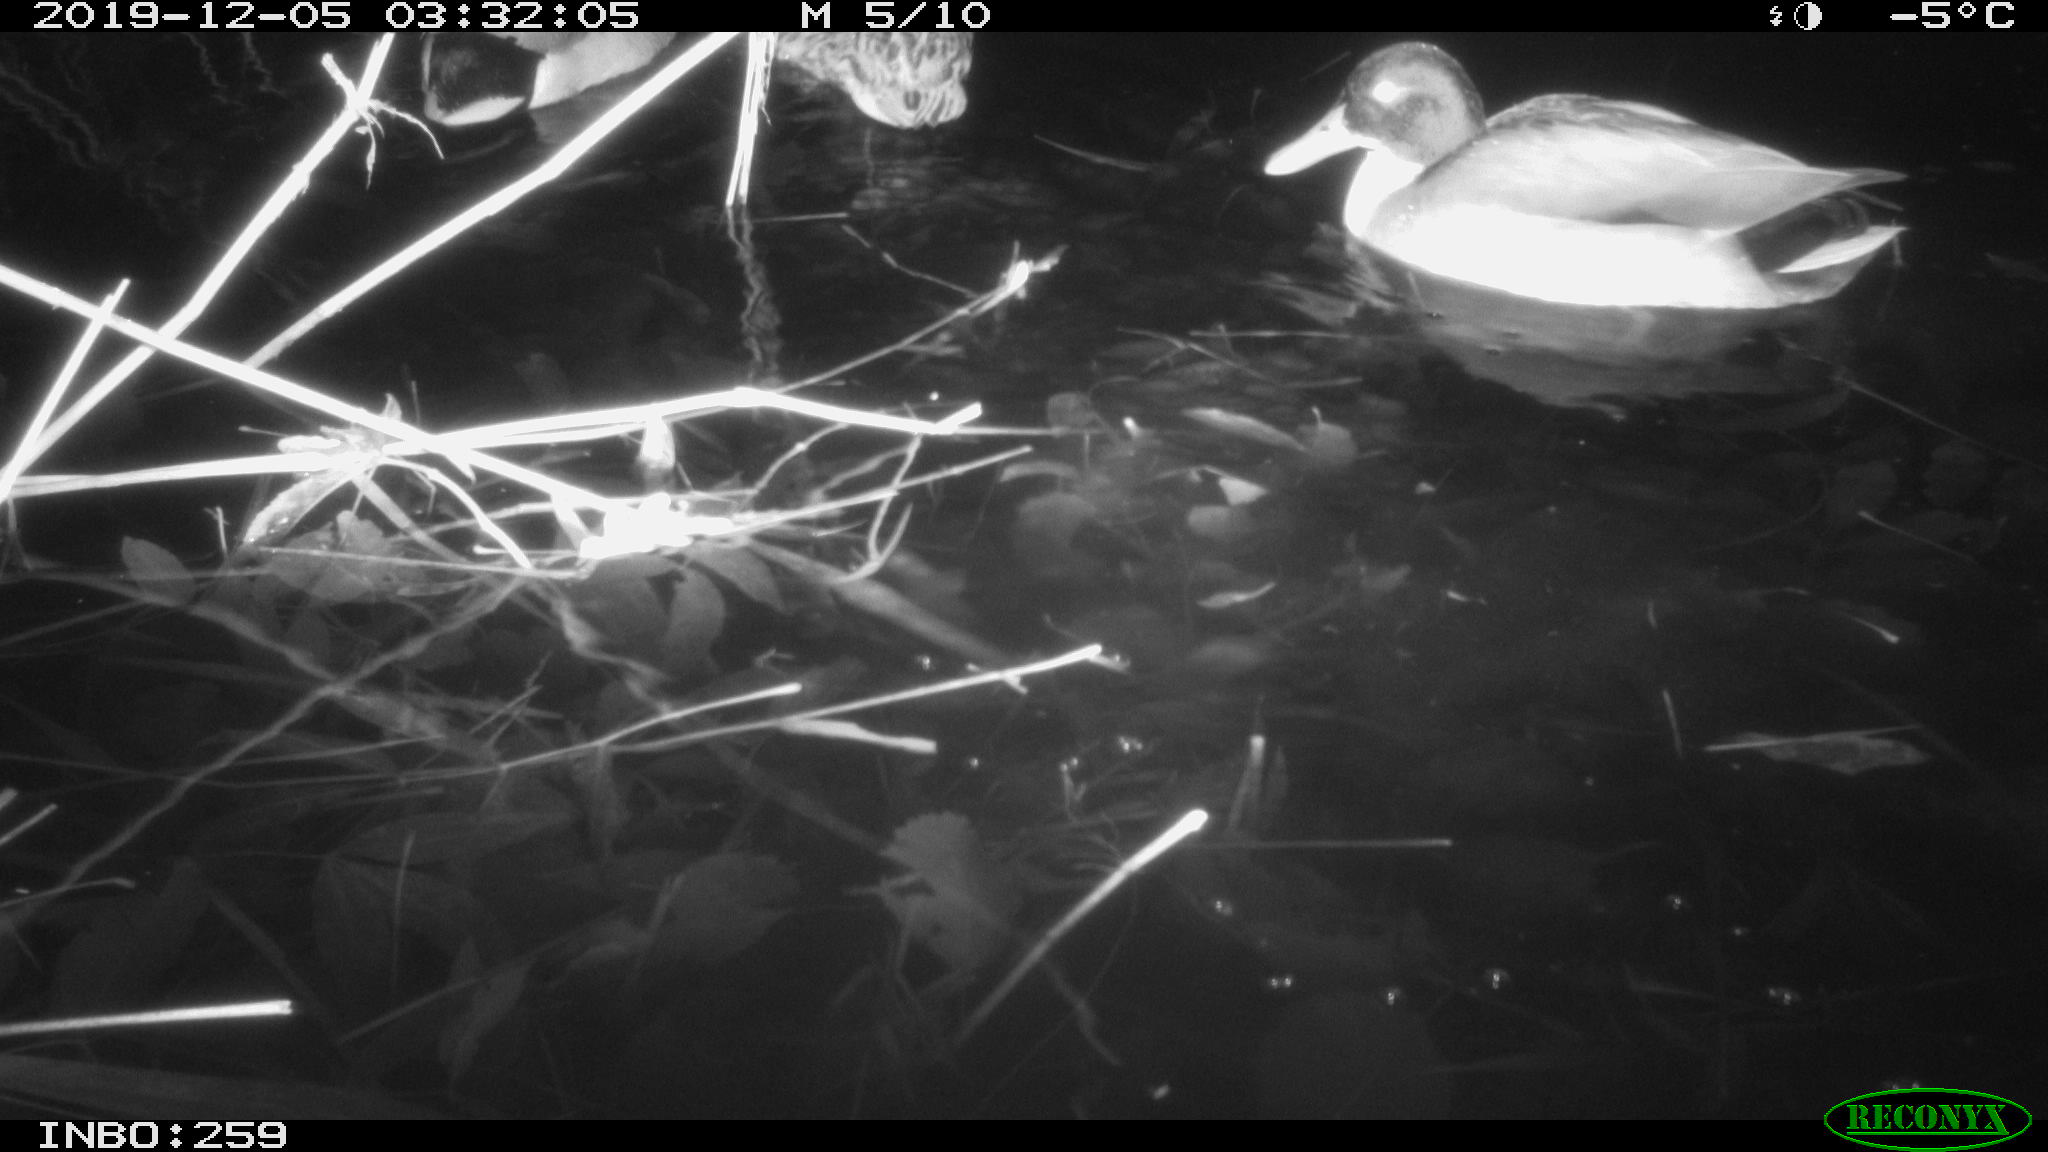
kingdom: Animalia
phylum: Chordata
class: Aves
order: Anseriformes
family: Anatidae
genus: Anas
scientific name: Anas platyrhynchos
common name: Mallard
